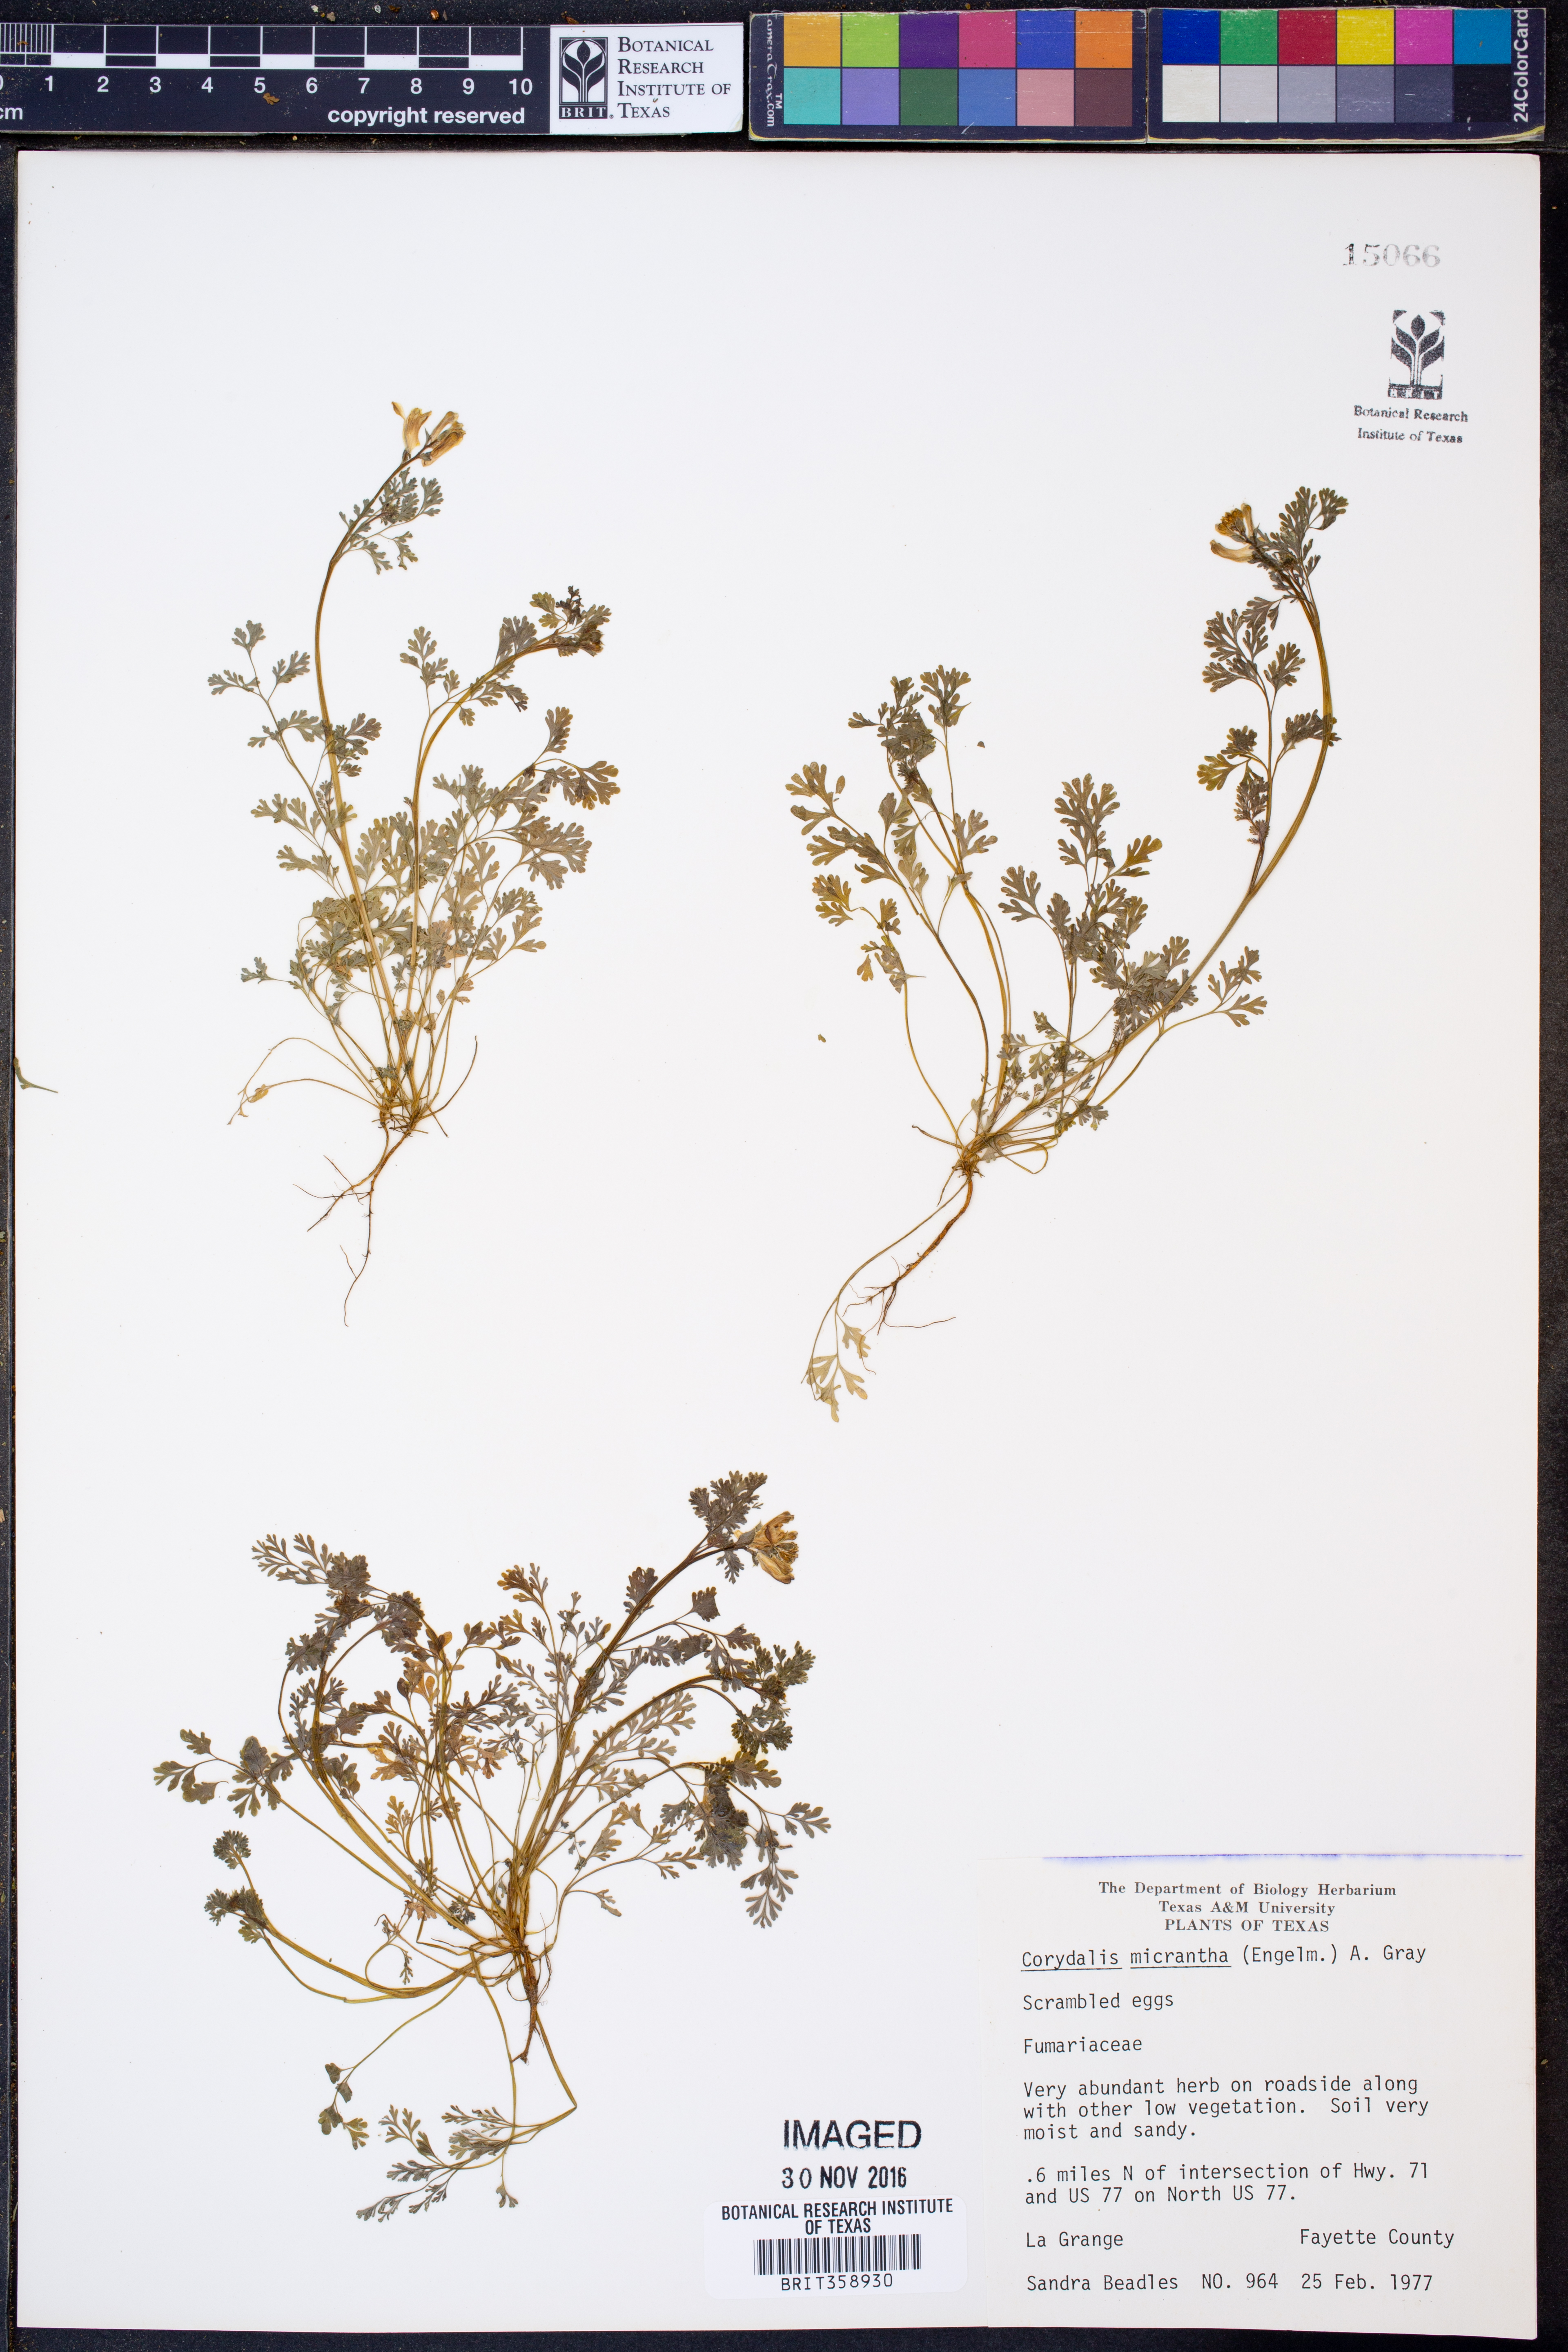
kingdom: Plantae
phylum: Tracheophyta
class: Magnoliopsida
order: Ranunculales
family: Papaveraceae
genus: Corydalis
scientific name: Corydalis micrantha
